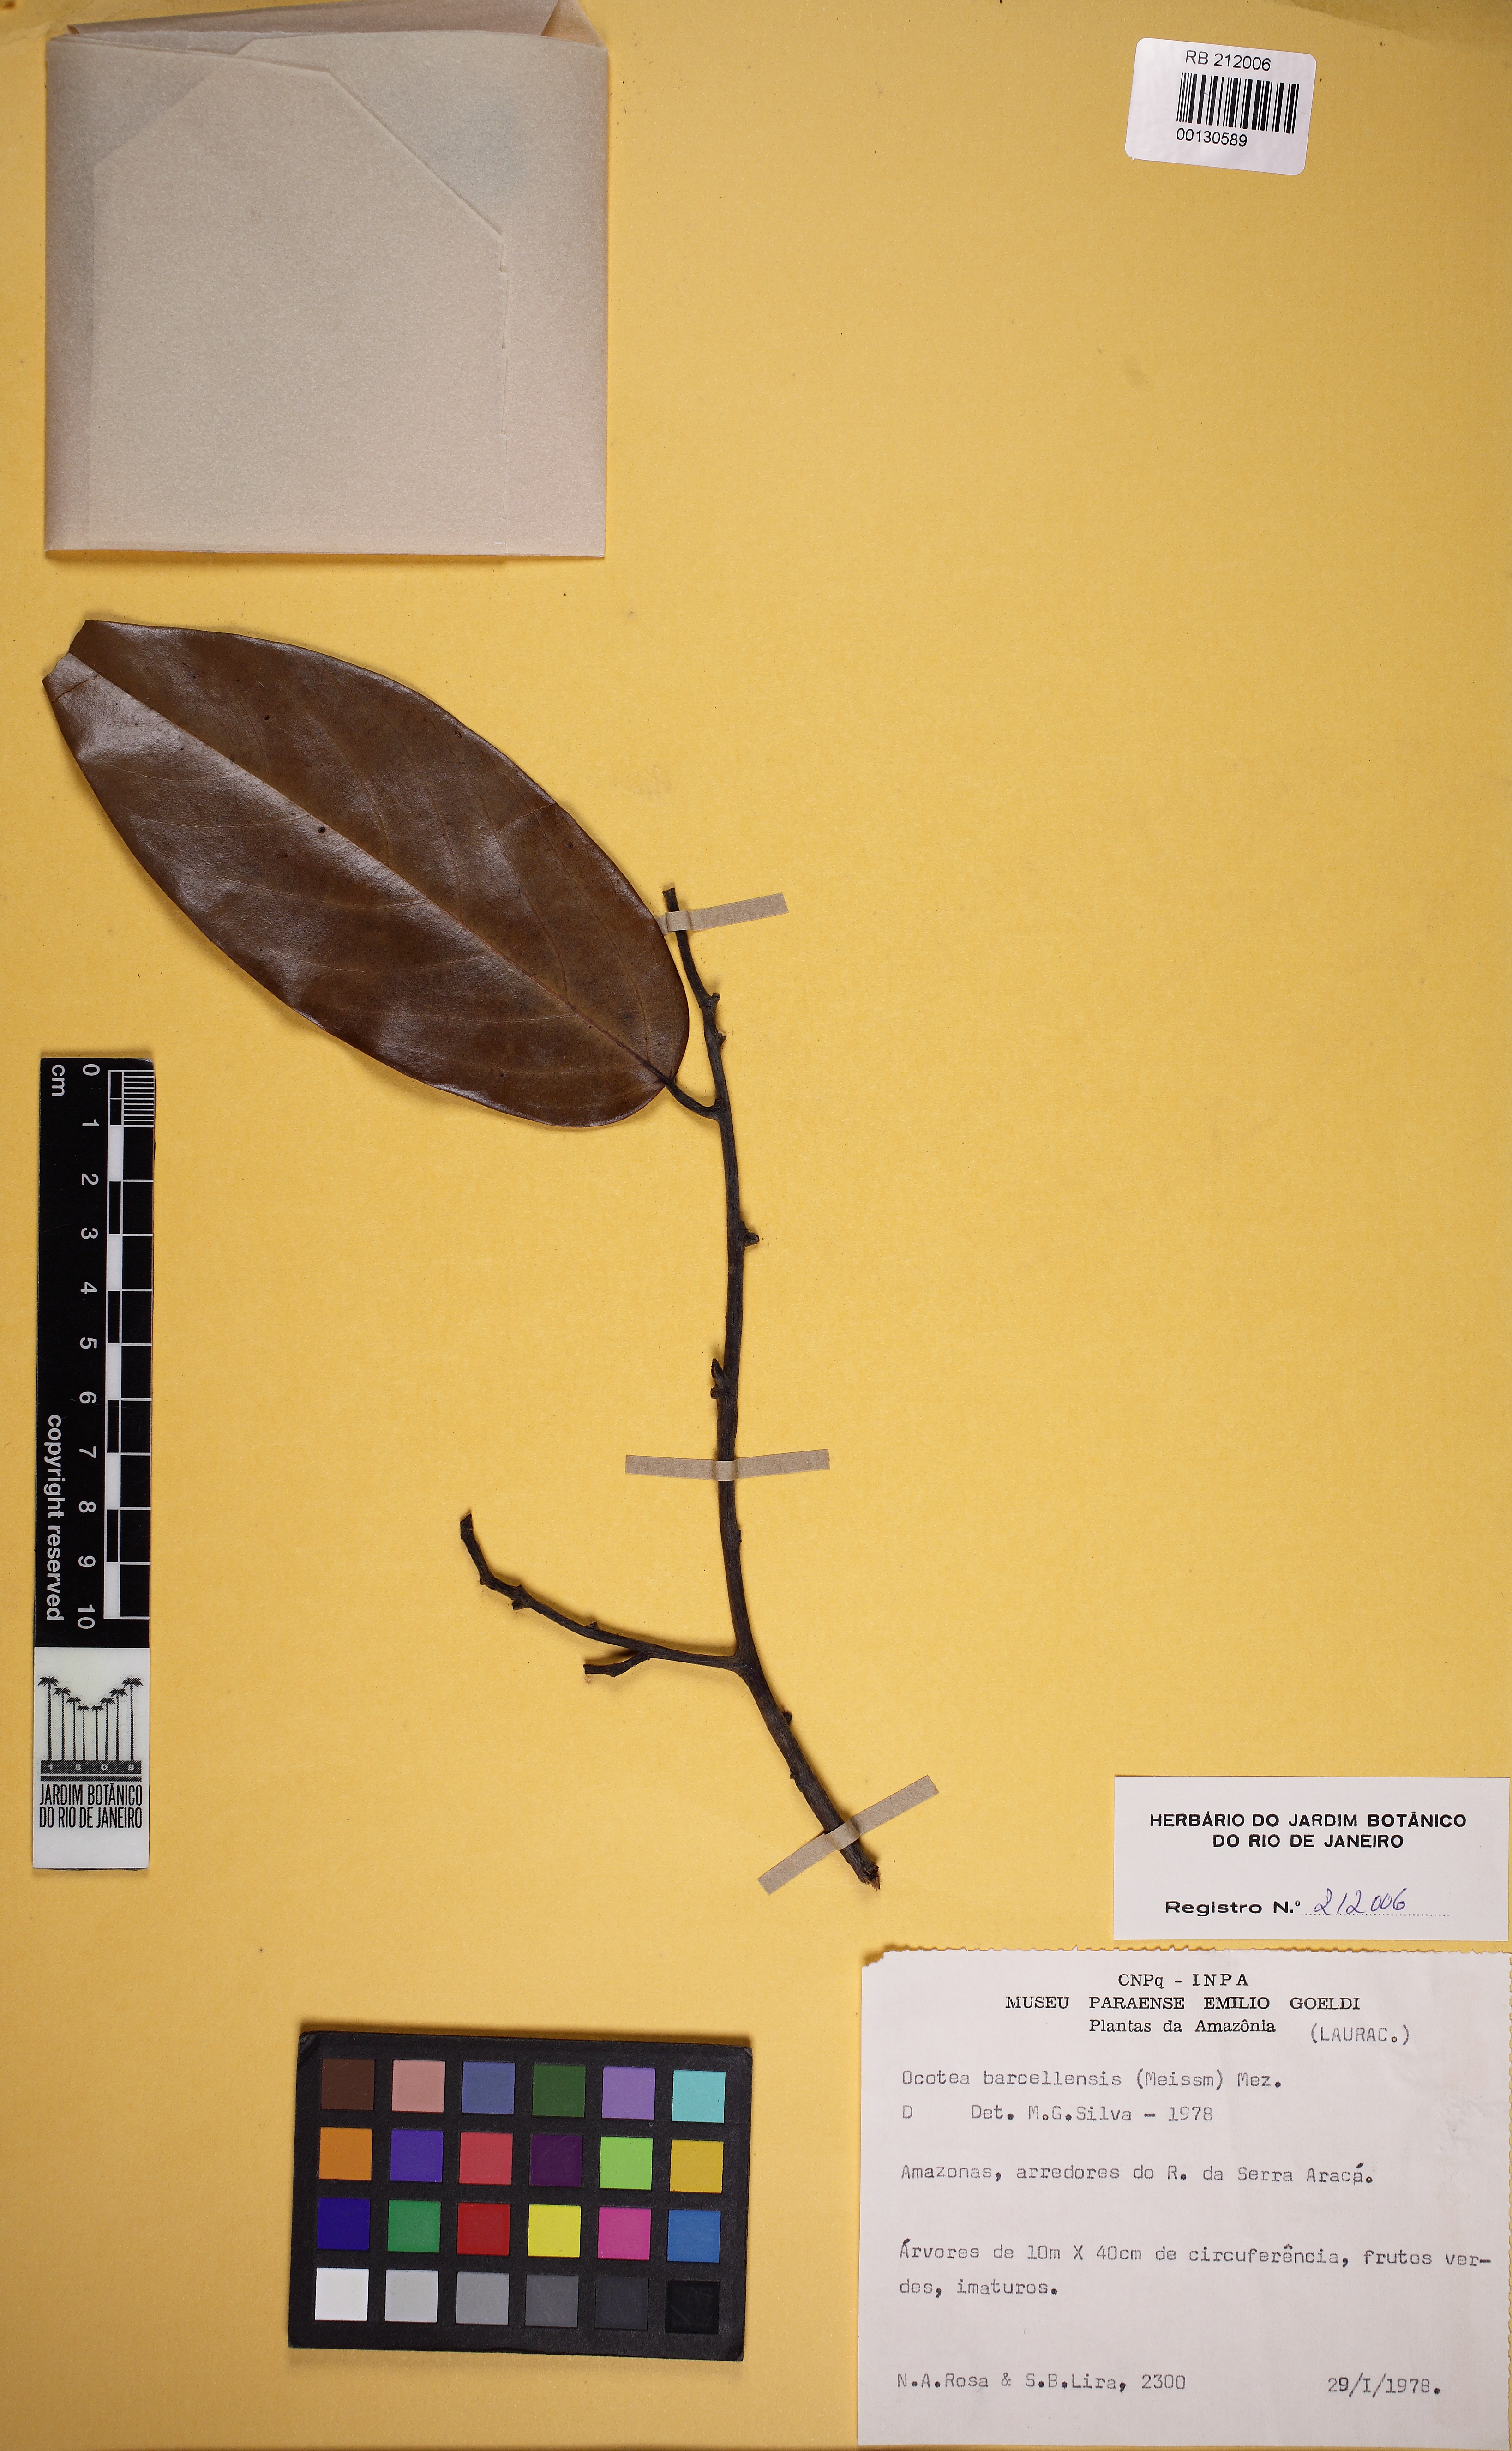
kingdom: Plantae
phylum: Tracheophyta
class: Magnoliopsida
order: Laurales
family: Lauraceae
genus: Mespilodaphne
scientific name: Mespilodaphne cymbarum
